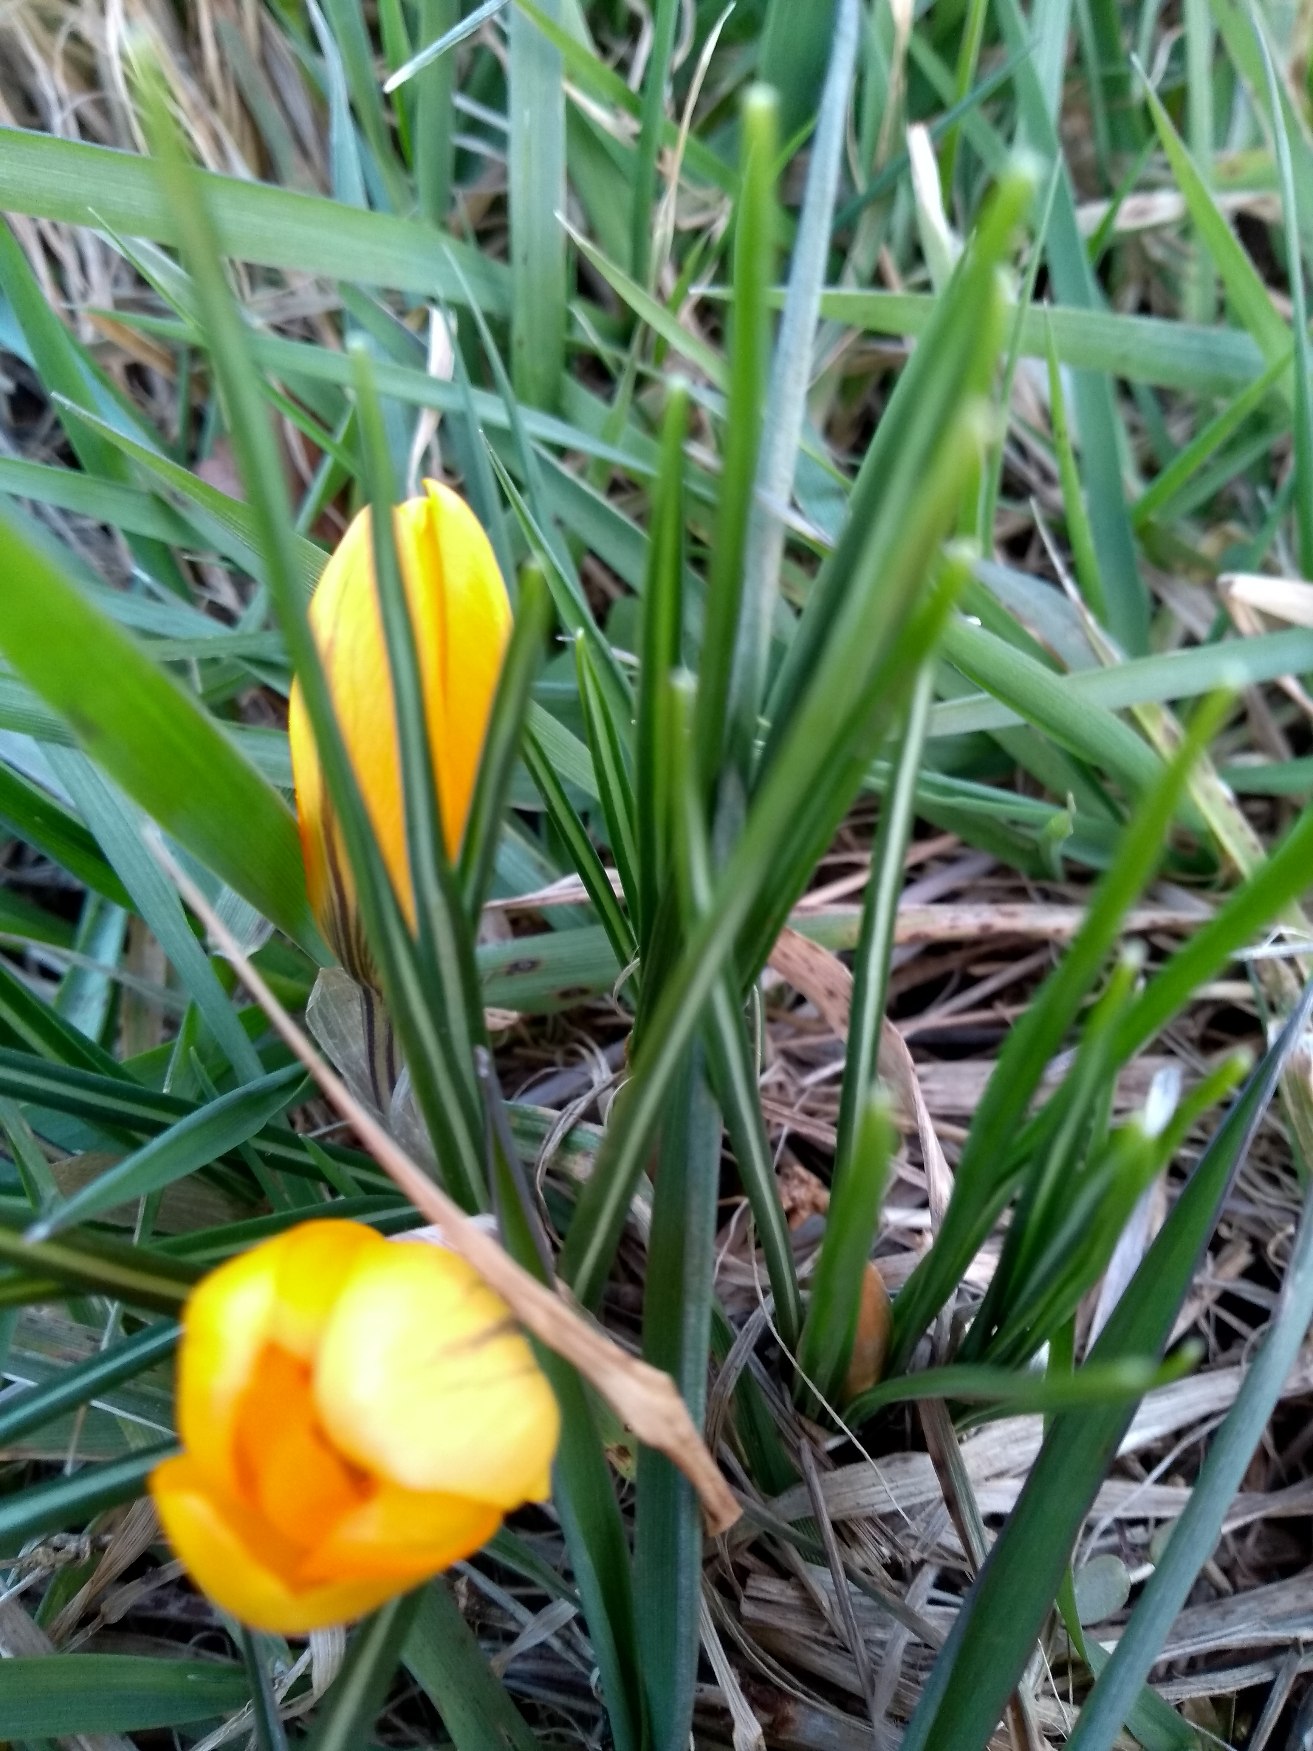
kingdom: Plantae
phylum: Tracheophyta
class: Liliopsida
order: Asparagales
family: Iridaceae
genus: Crocus
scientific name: Crocus luteus
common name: Gul krokus
